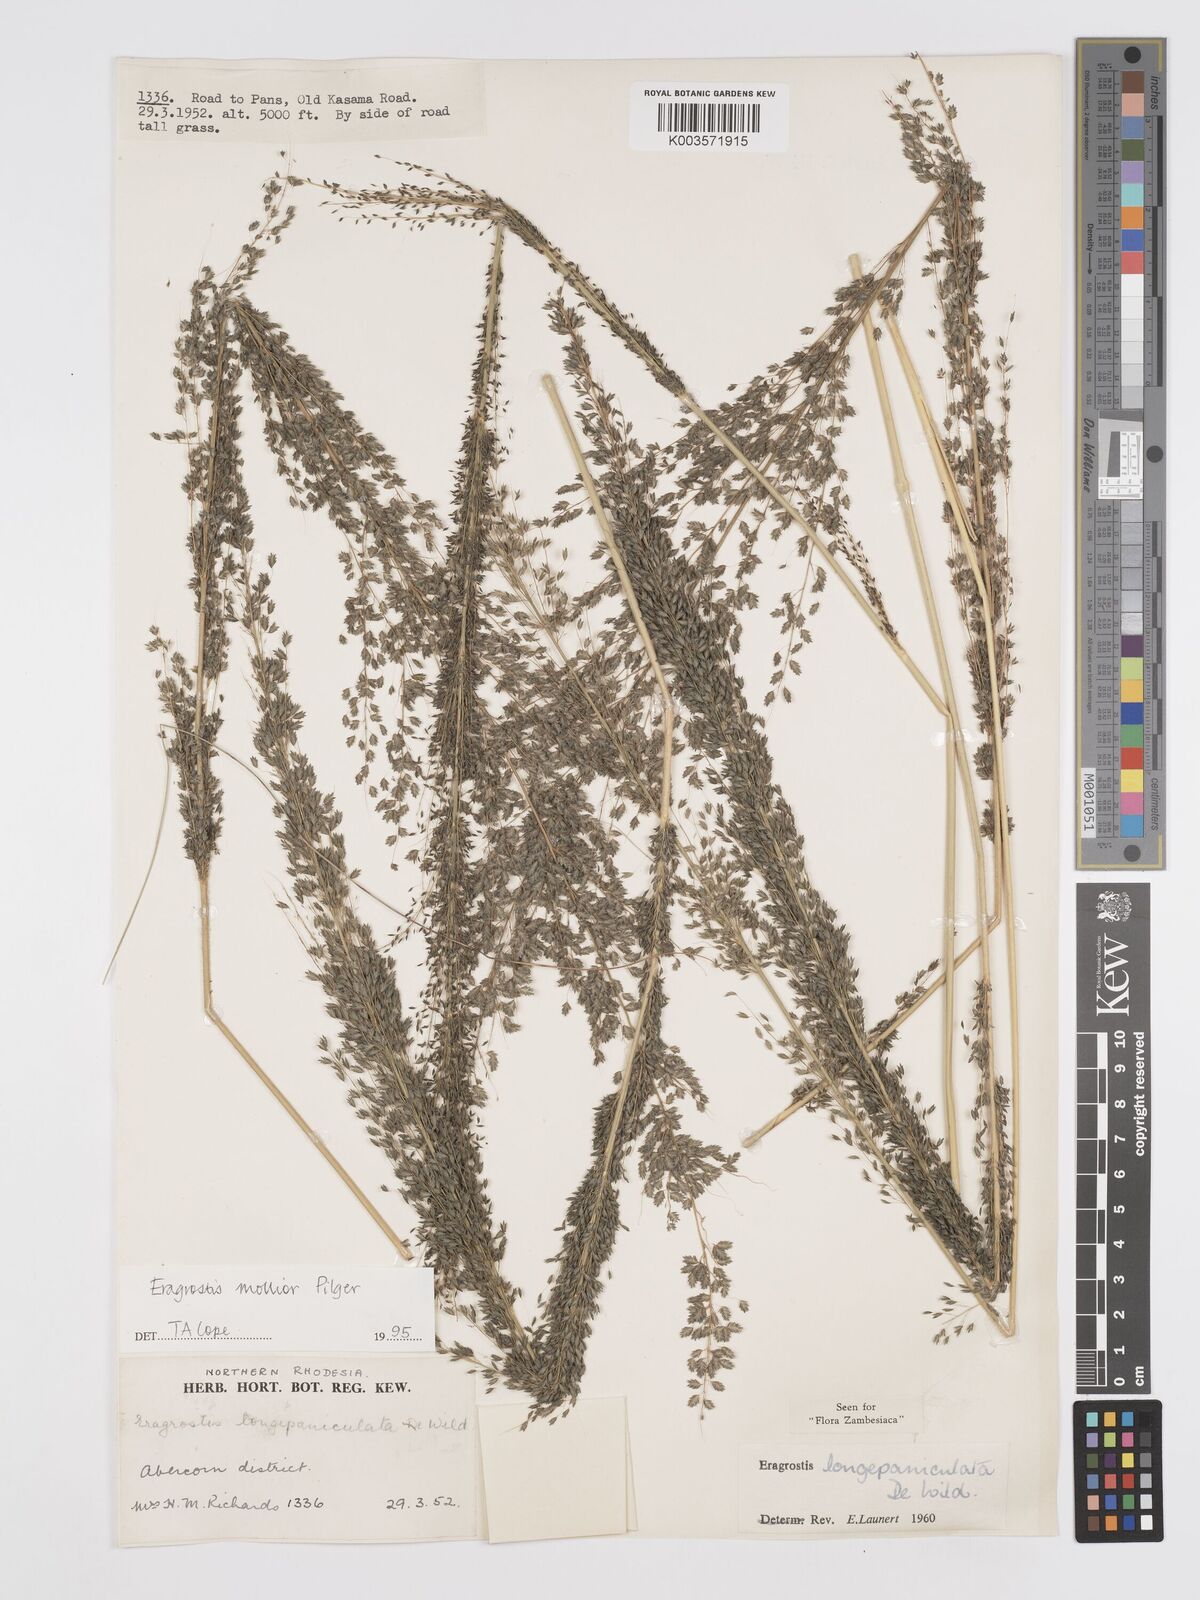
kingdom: Plantae
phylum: Tracheophyta
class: Liliopsida
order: Poales
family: Poaceae
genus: Eragrostis
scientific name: Eragrostis mollior
